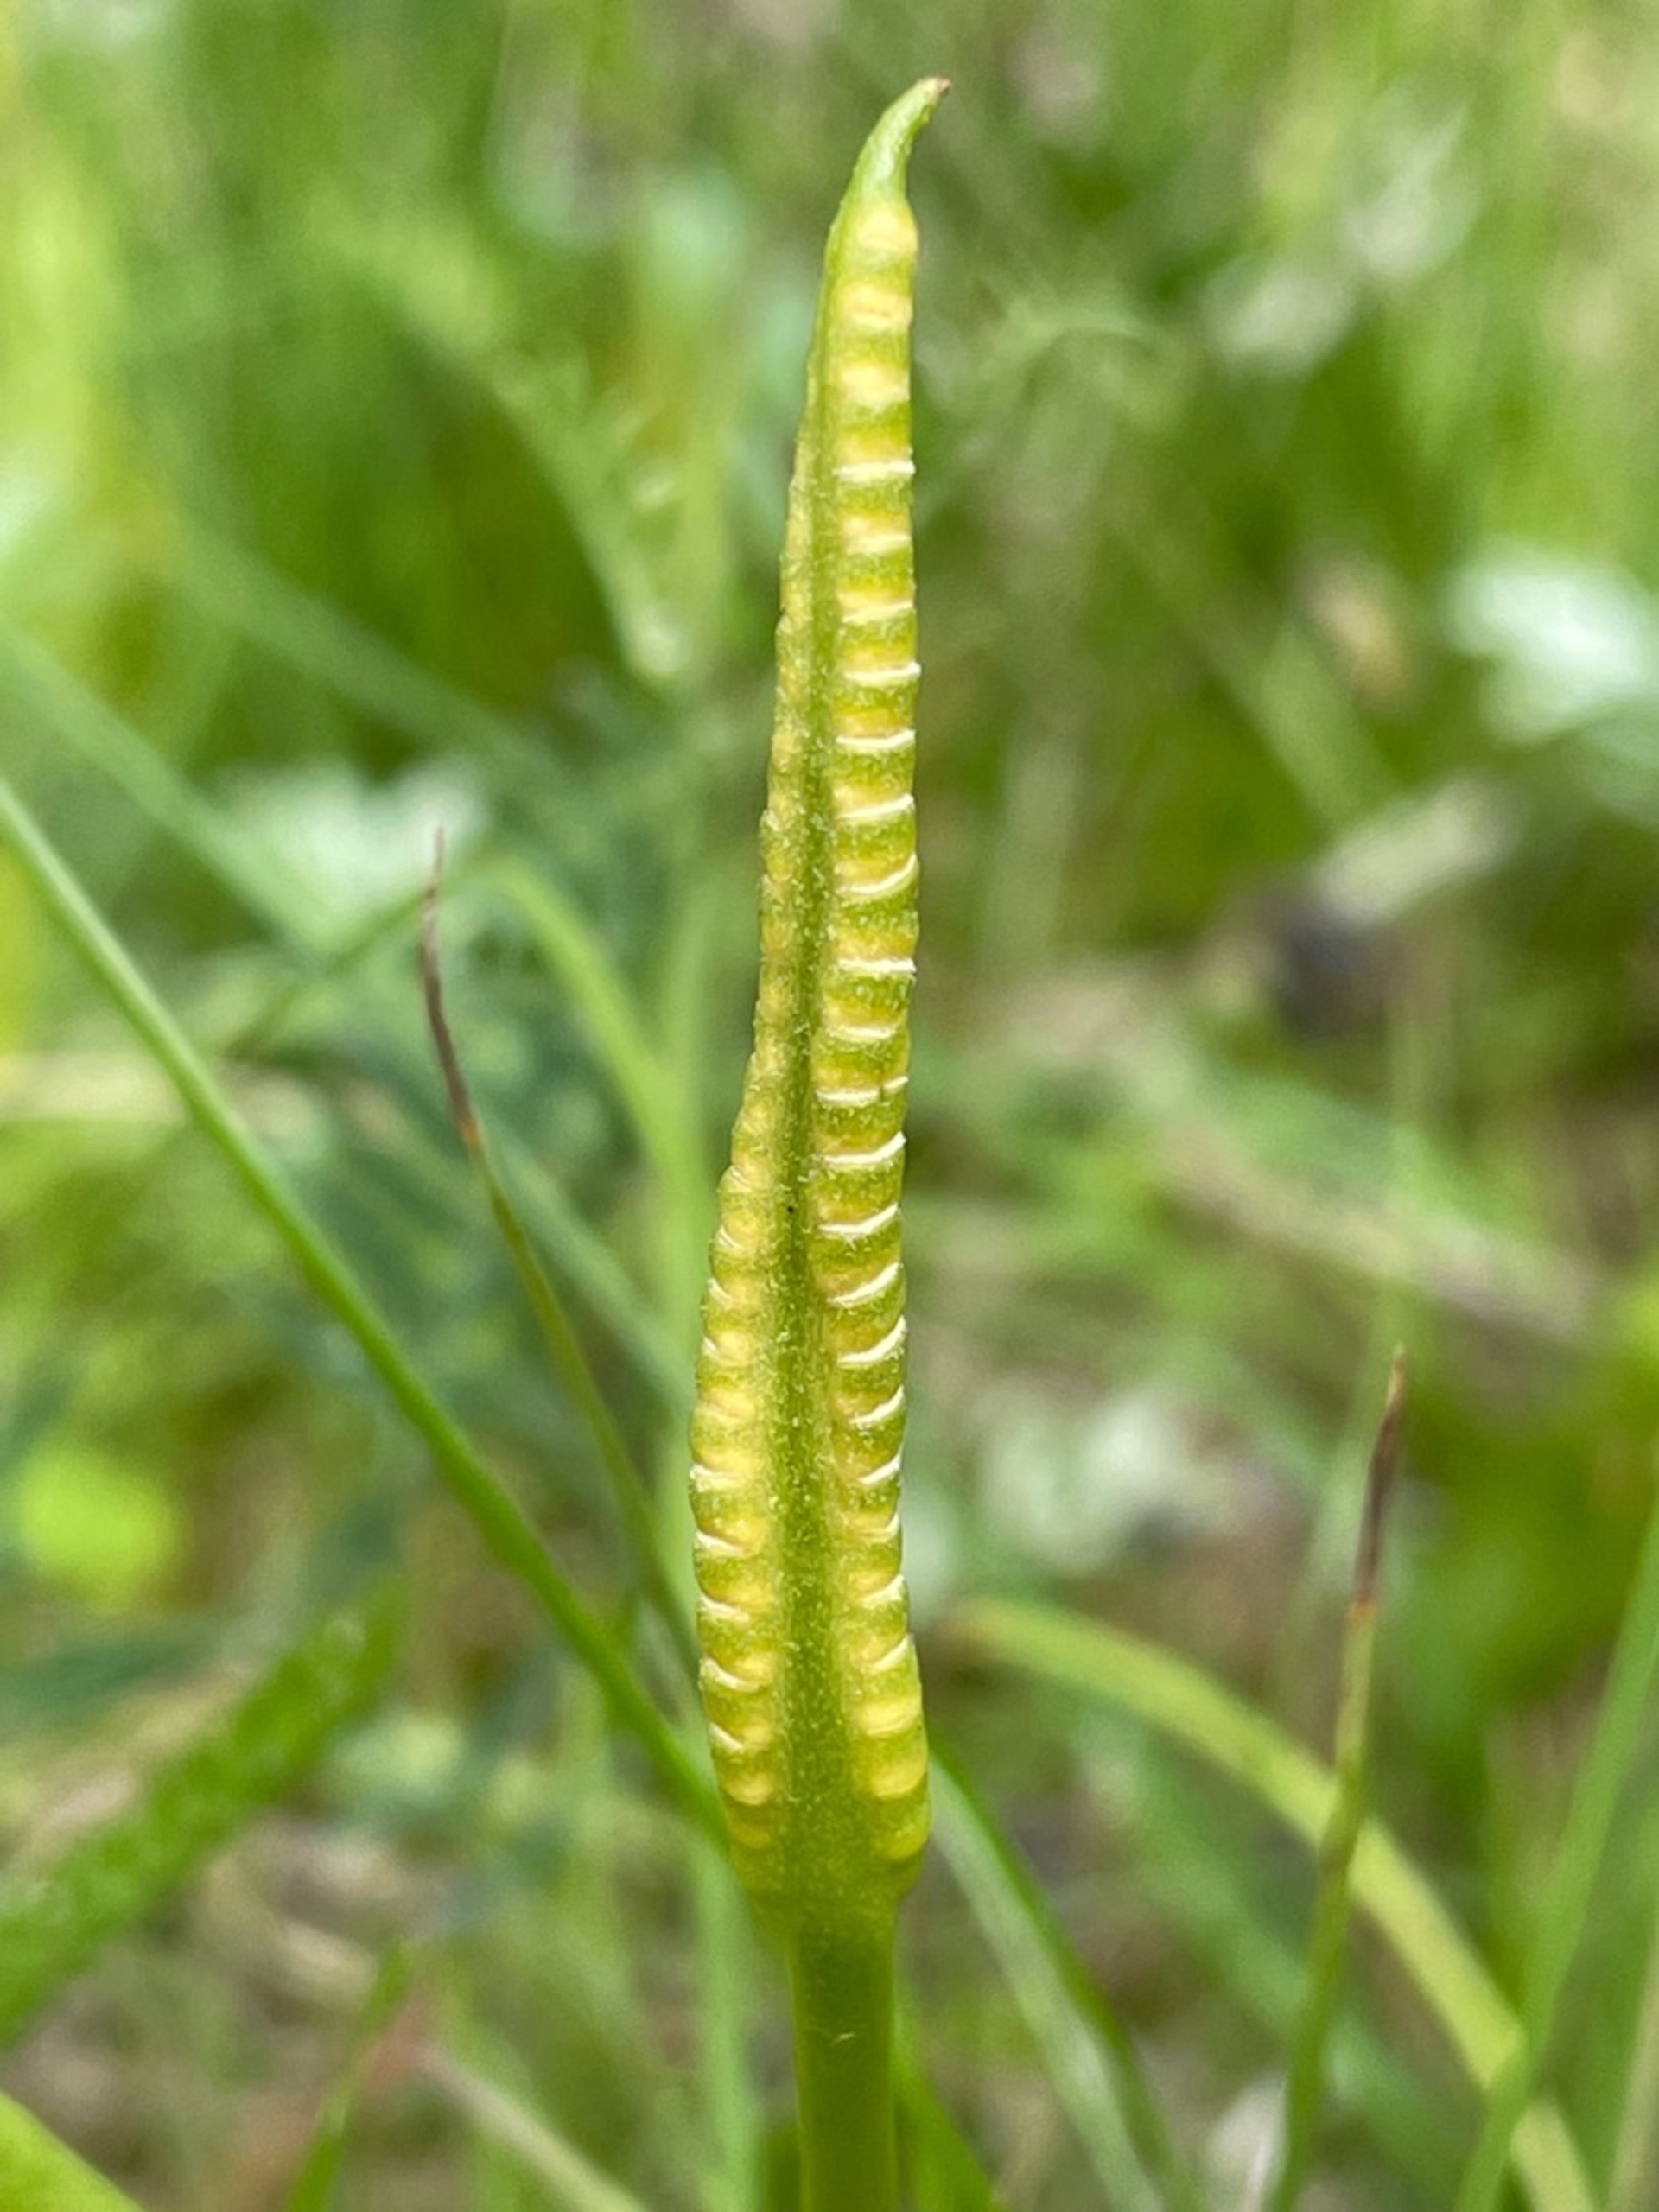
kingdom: Plantae
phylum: Tracheophyta
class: Polypodiopsida
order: Ophioglossales
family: Ophioglossaceae
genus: Ophioglossum
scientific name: Ophioglossum vulgatum
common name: Slangetunge
